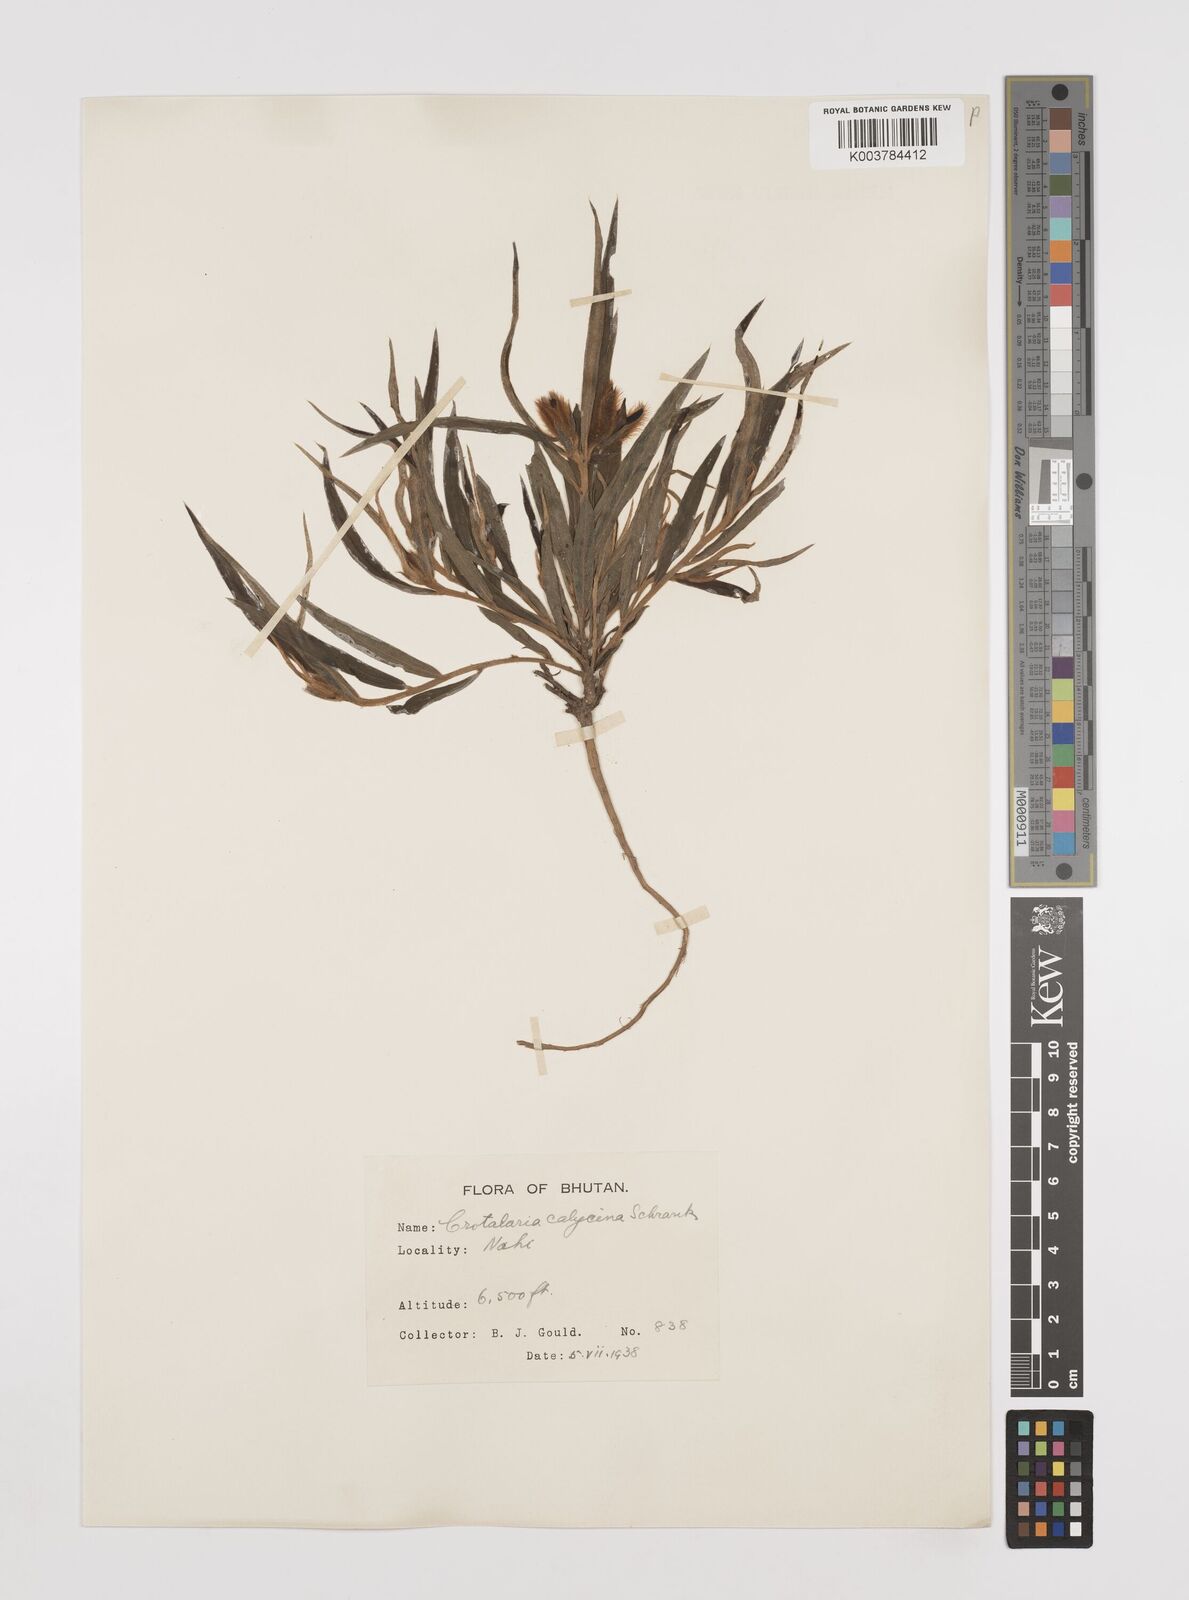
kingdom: Plantae
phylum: Tracheophyta
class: Magnoliopsida
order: Fabales
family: Fabaceae
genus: Crotalaria
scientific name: Crotalaria calycina
